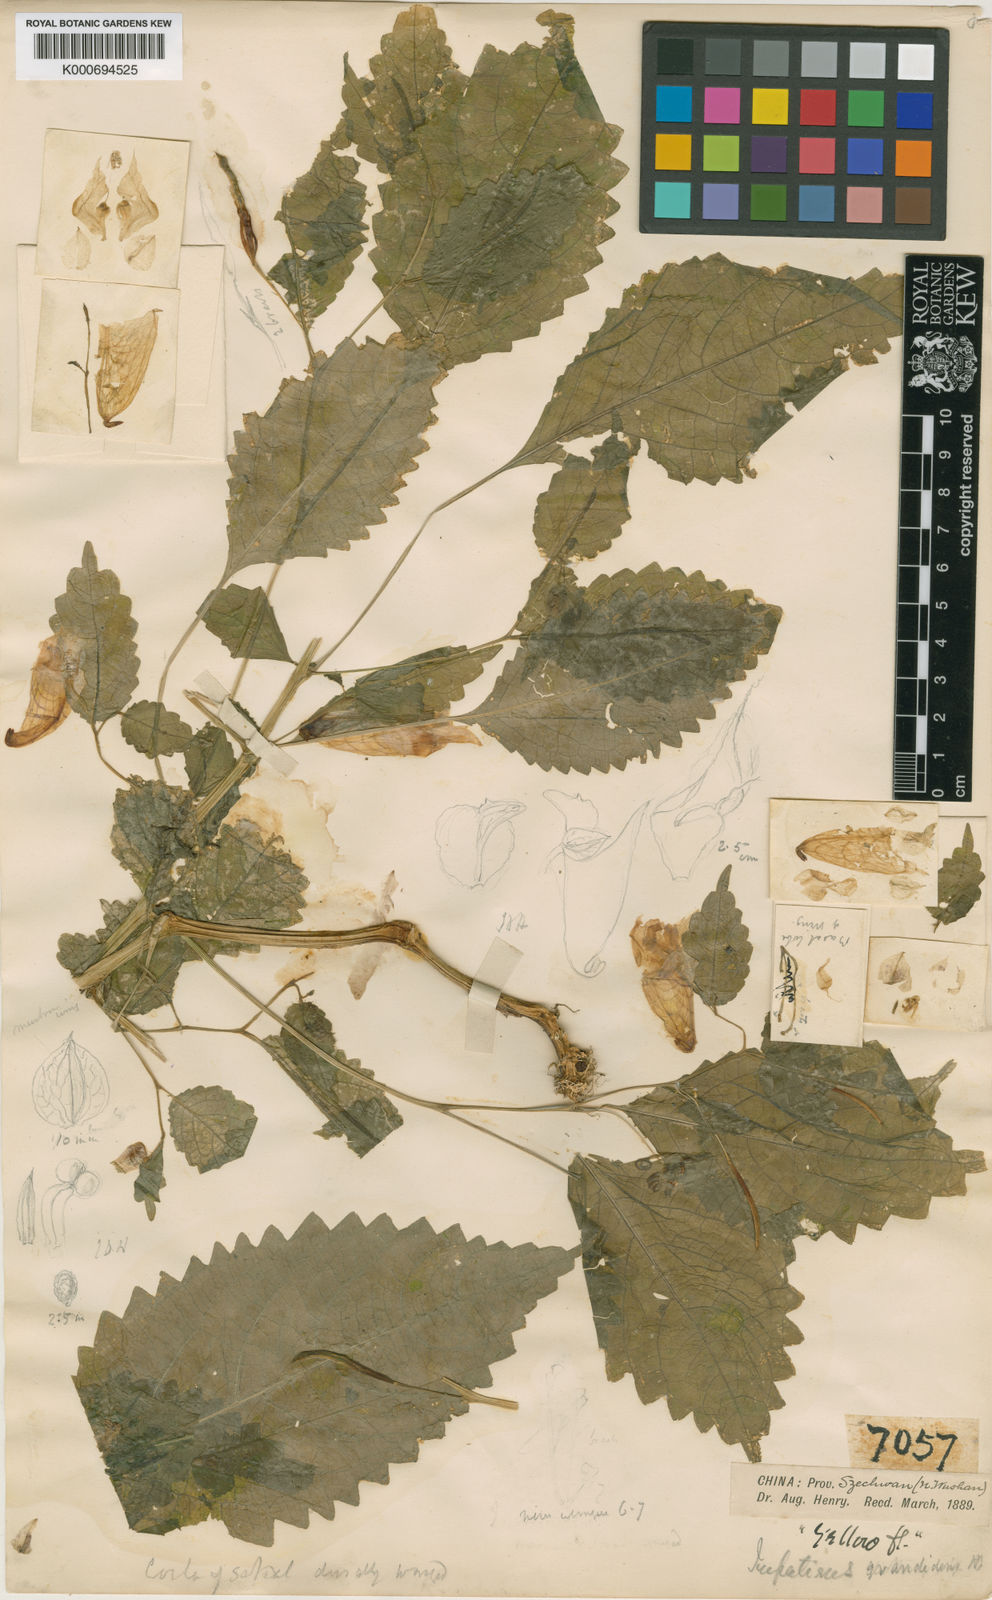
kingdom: Plantae
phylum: Tracheophyta
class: Magnoliopsida
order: Ericales
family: Balsaminaceae
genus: Impatiens
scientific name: Impatiens
